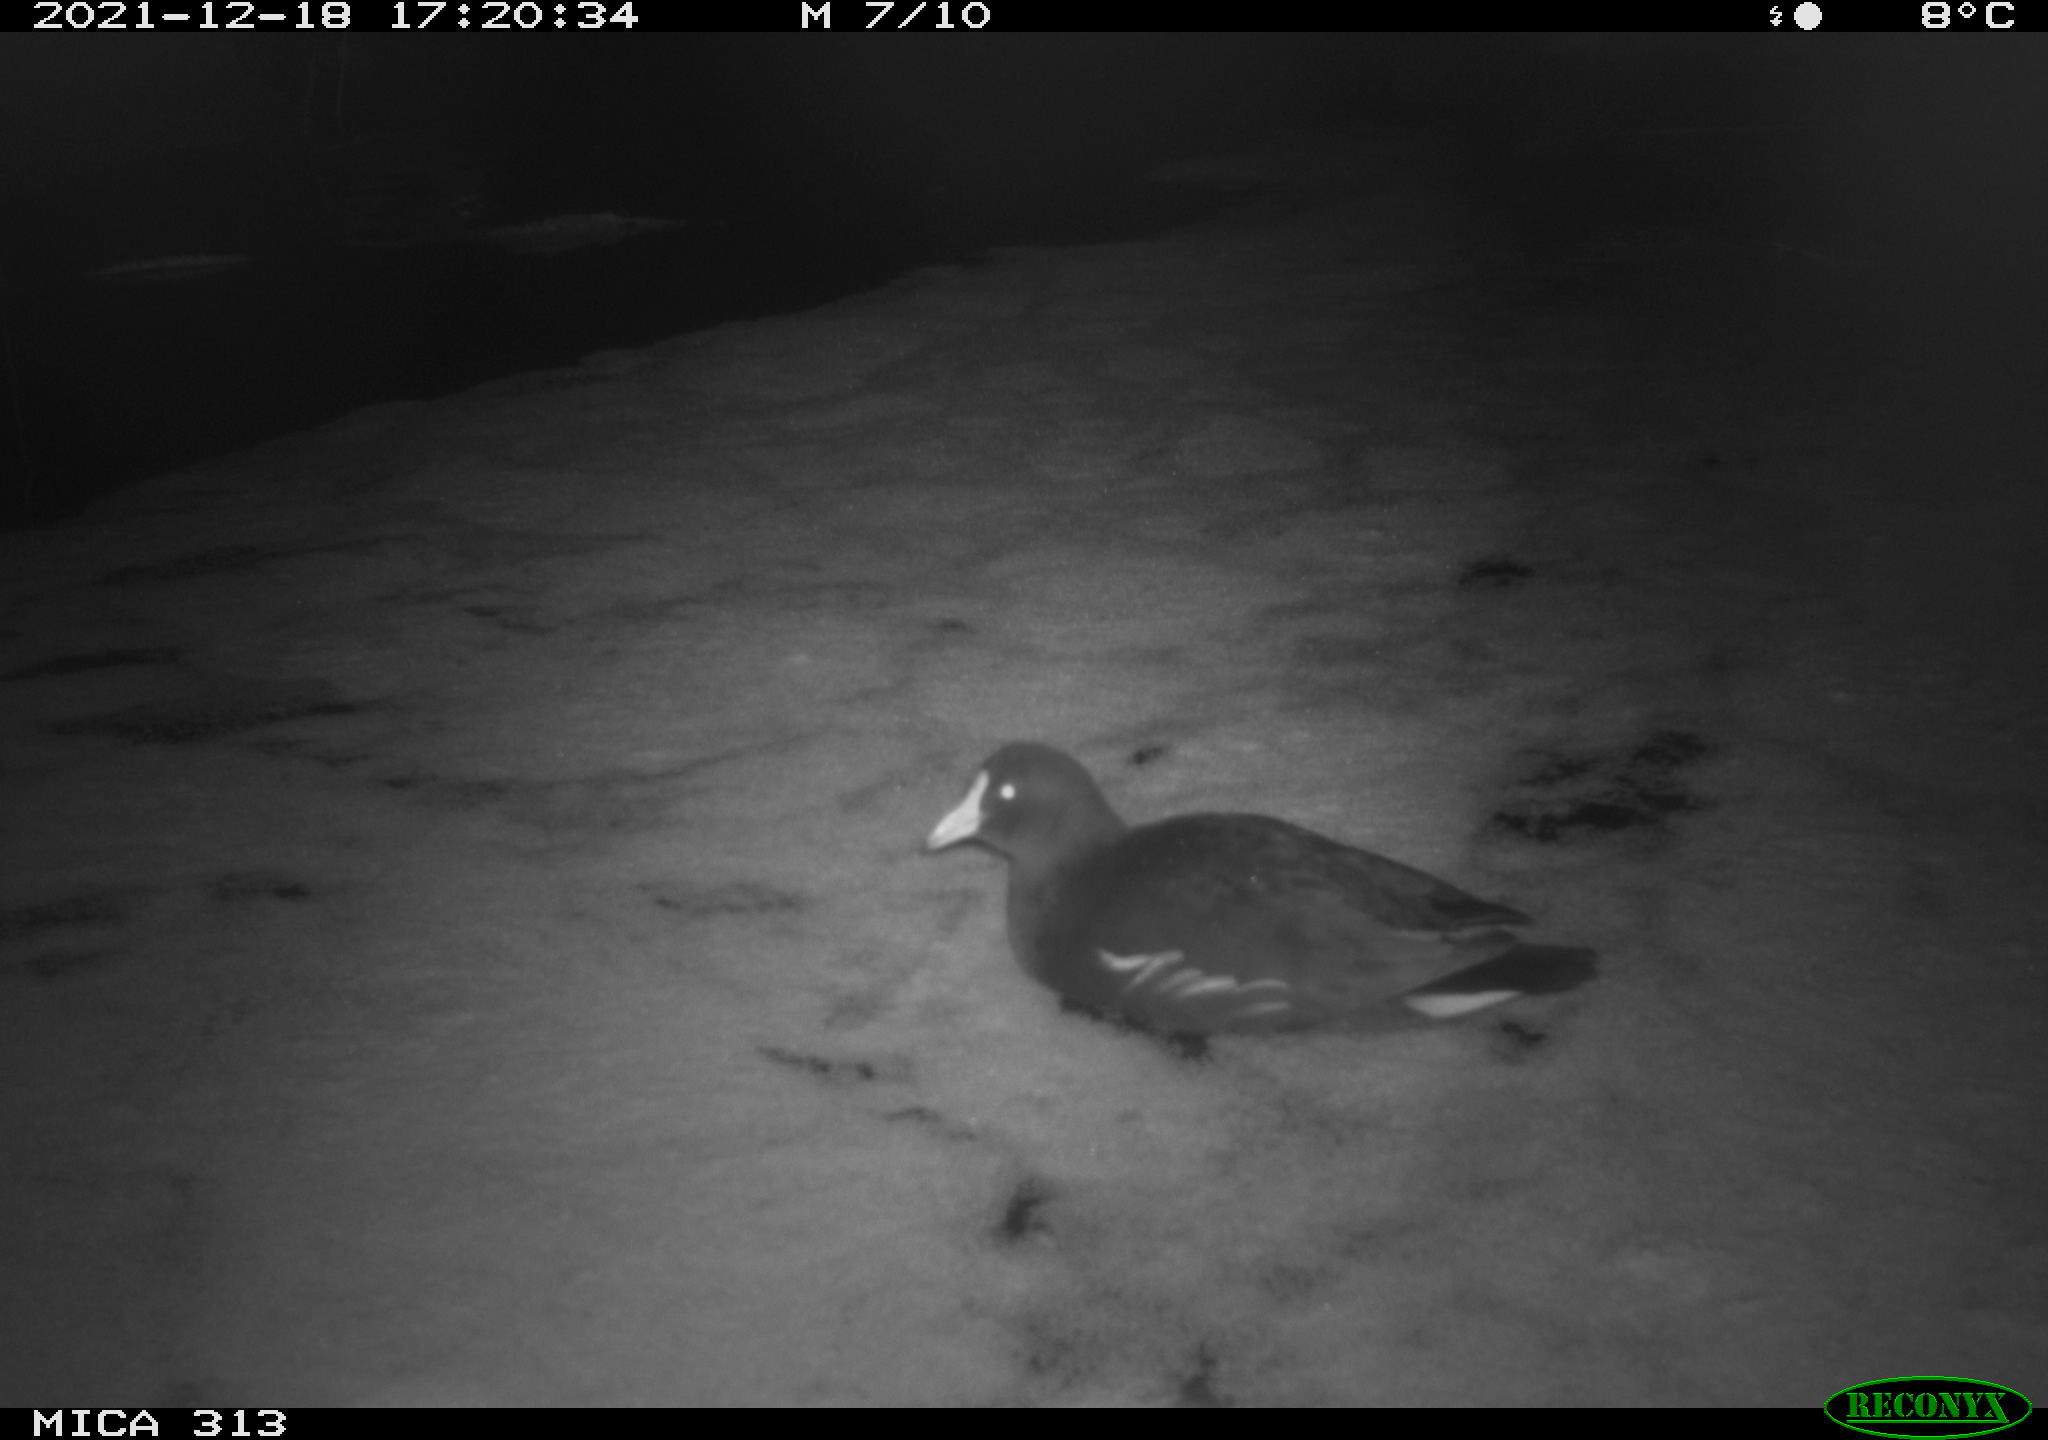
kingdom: Animalia
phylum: Chordata
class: Aves
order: Gruiformes
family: Rallidae
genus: Fulica
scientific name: Fulica atra
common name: Eurasian coot
